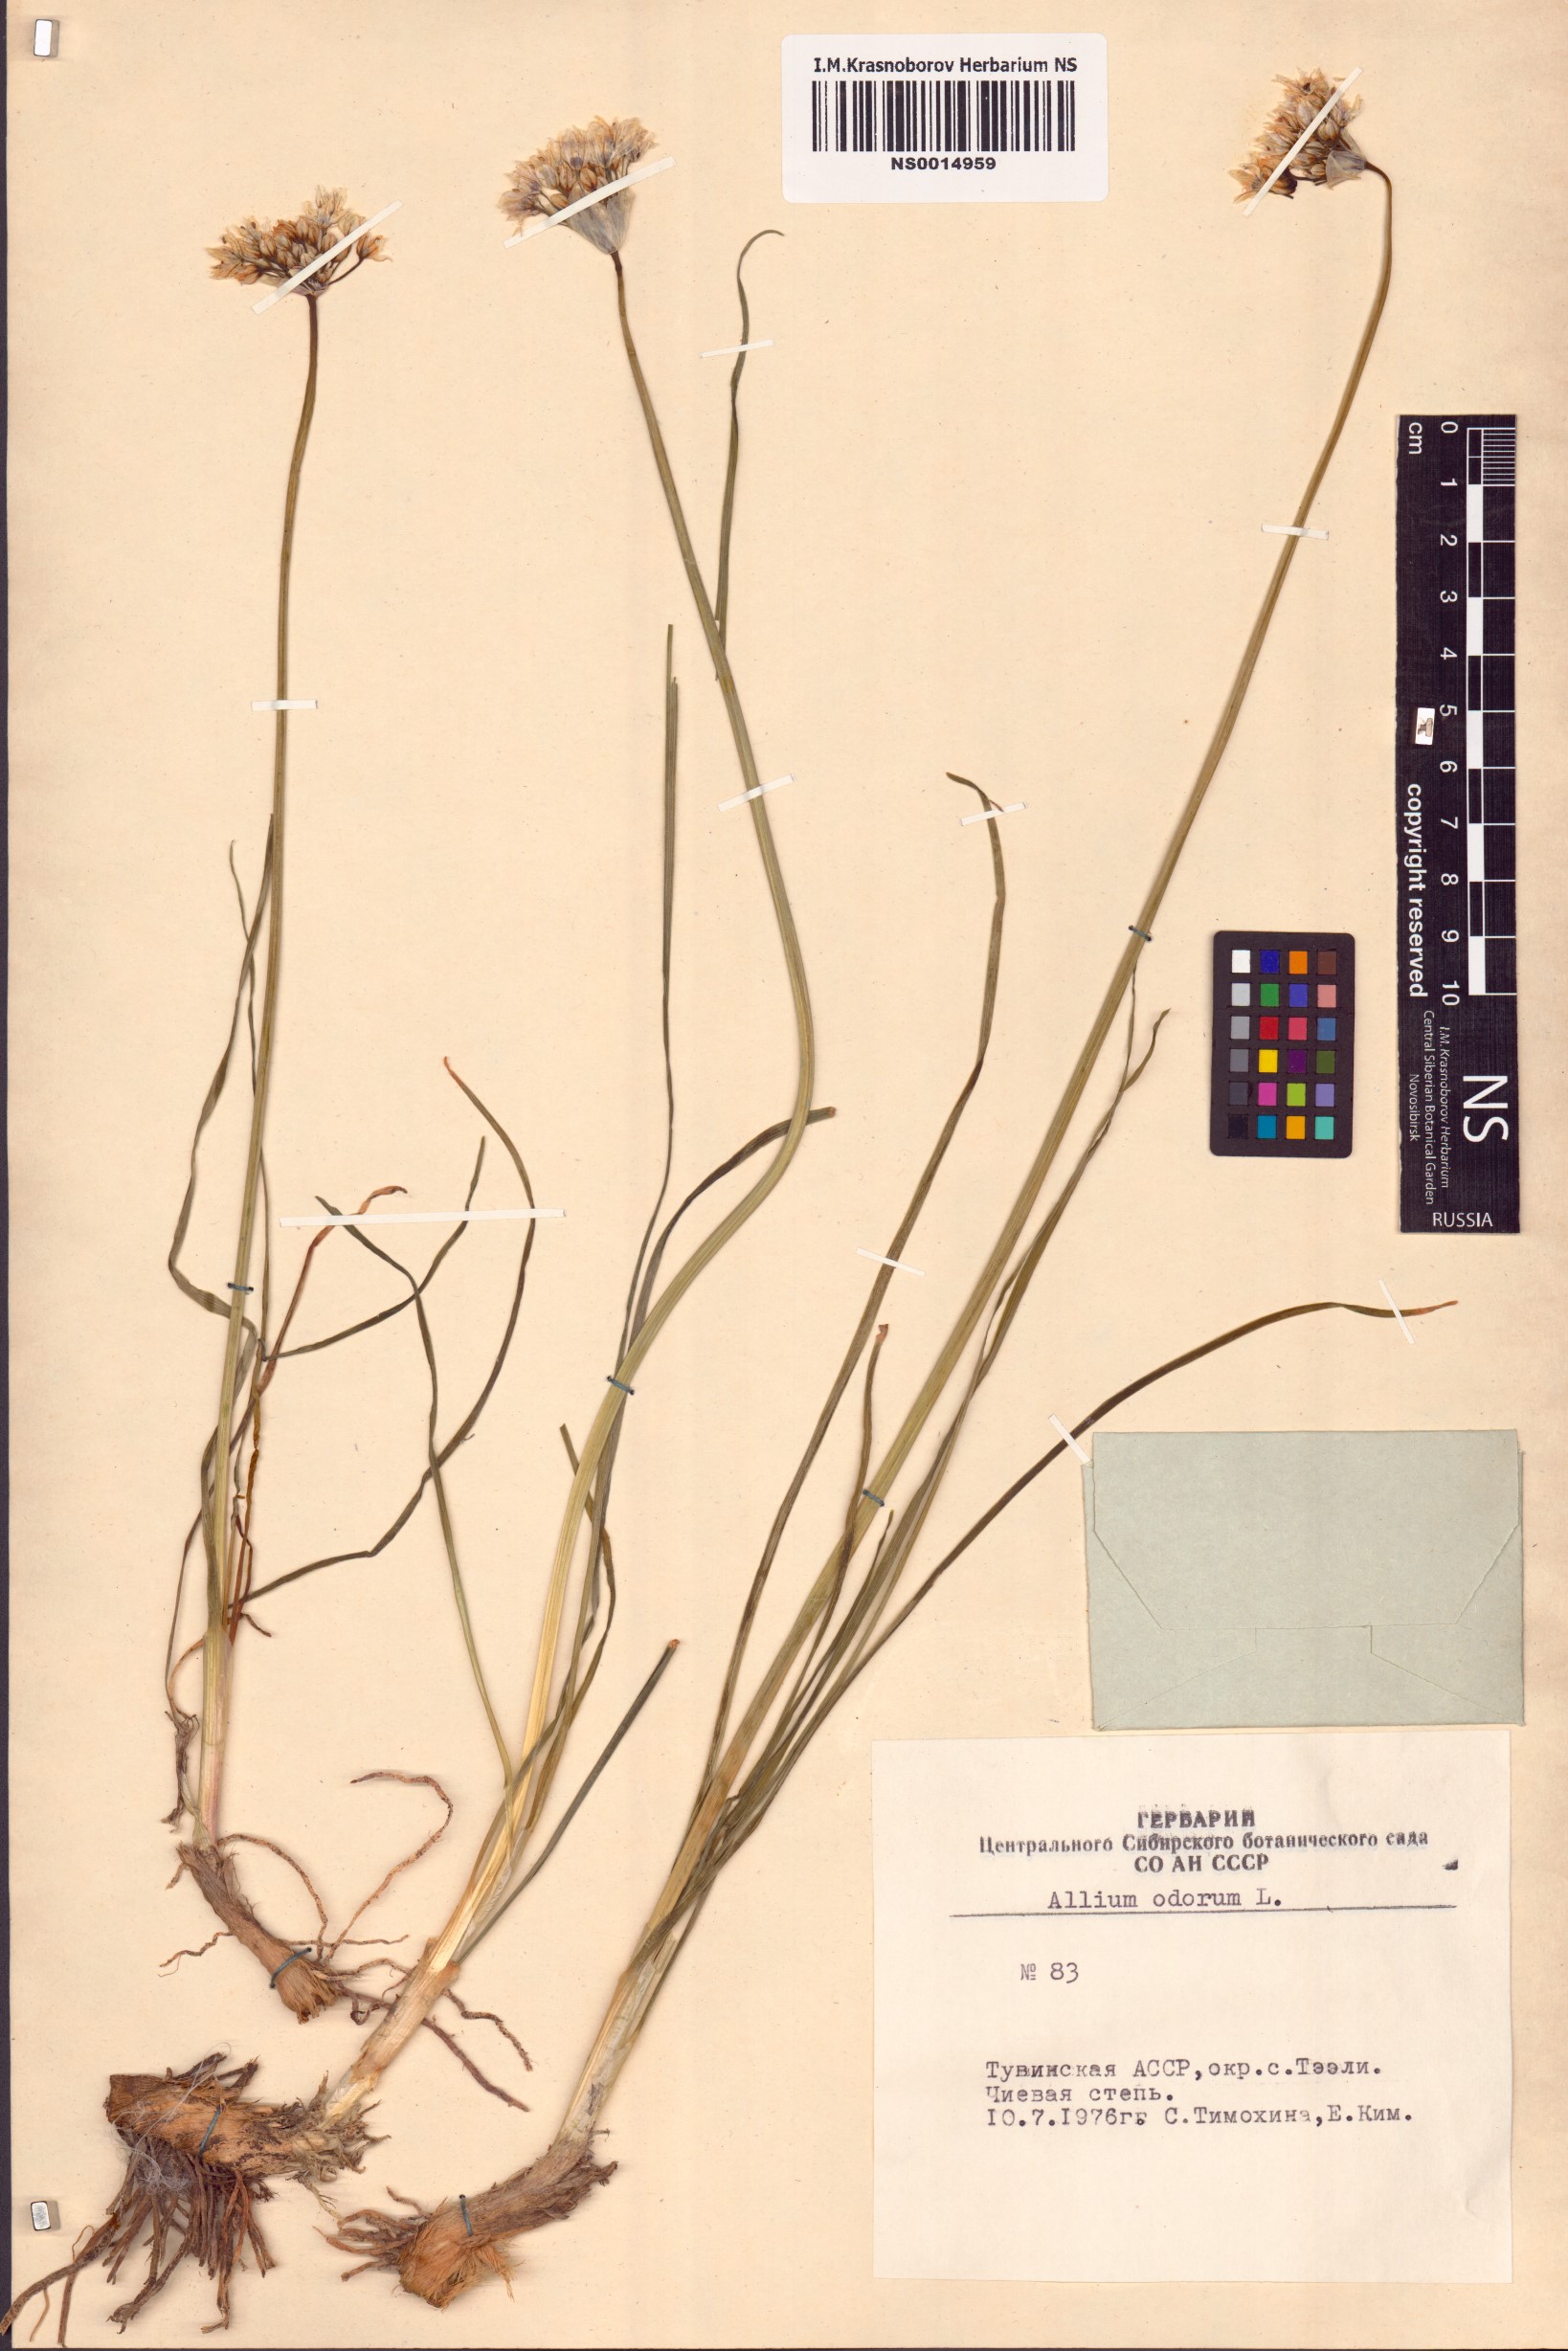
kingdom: Plantae
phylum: Tracheophyta
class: Liliopsida
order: Asparagales
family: Amaryllidaceae
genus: Allium
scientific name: Allium ramosum
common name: Fragrant garlic
